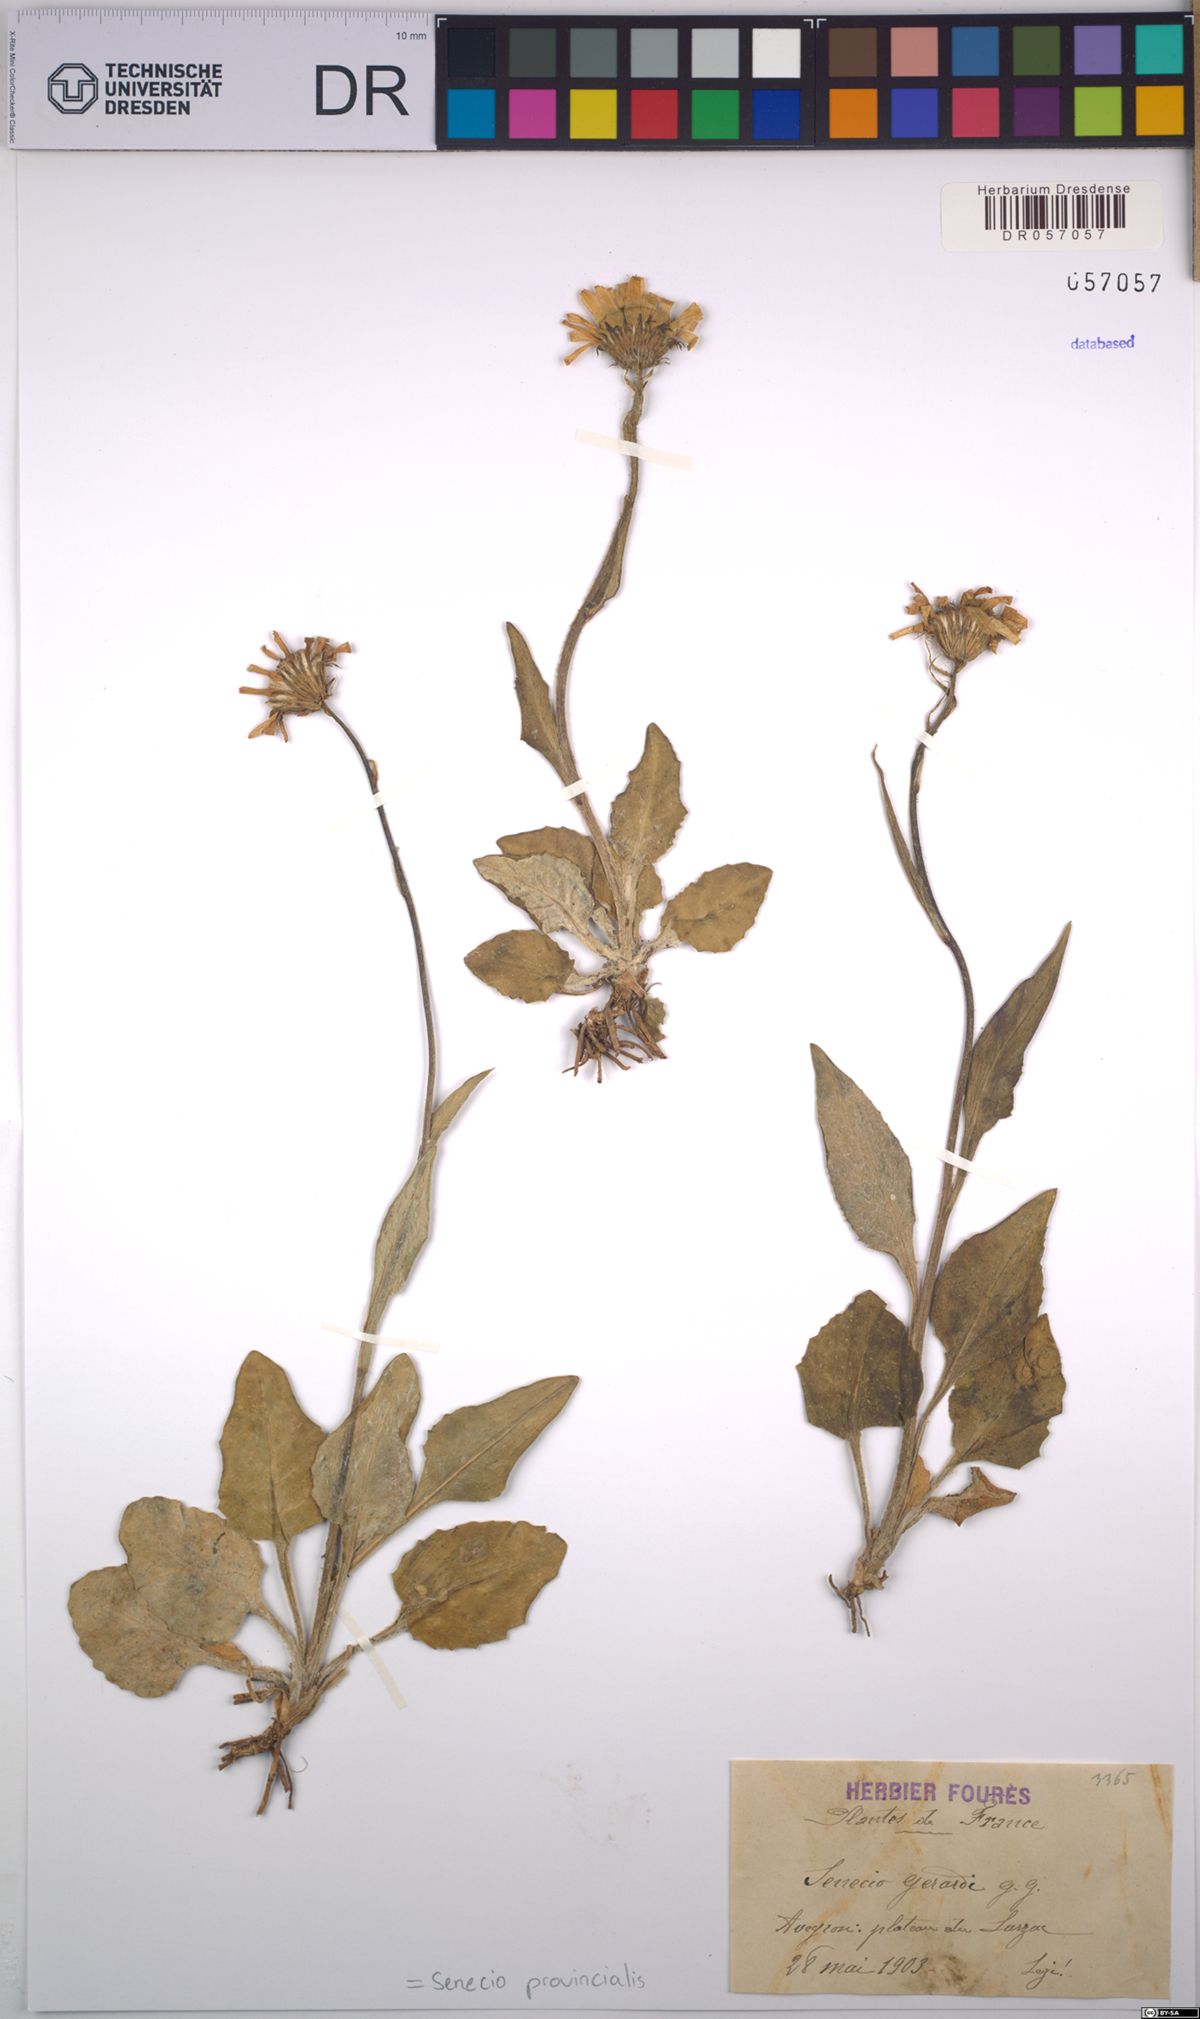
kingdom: Plantae
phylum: Tracheophyta
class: Magnoliopsida
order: Asterales
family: Asteraceae
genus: Senecio
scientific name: Senecio provincialis
